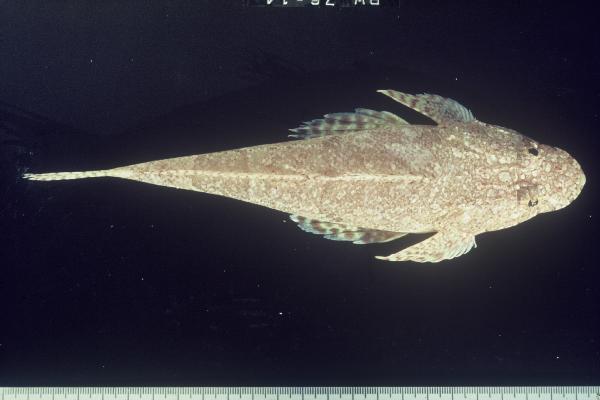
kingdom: Animalia
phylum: Chordata
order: Scorpaeniformes
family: Platycephalidae
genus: Thysanophrys
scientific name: Thysanophrys
